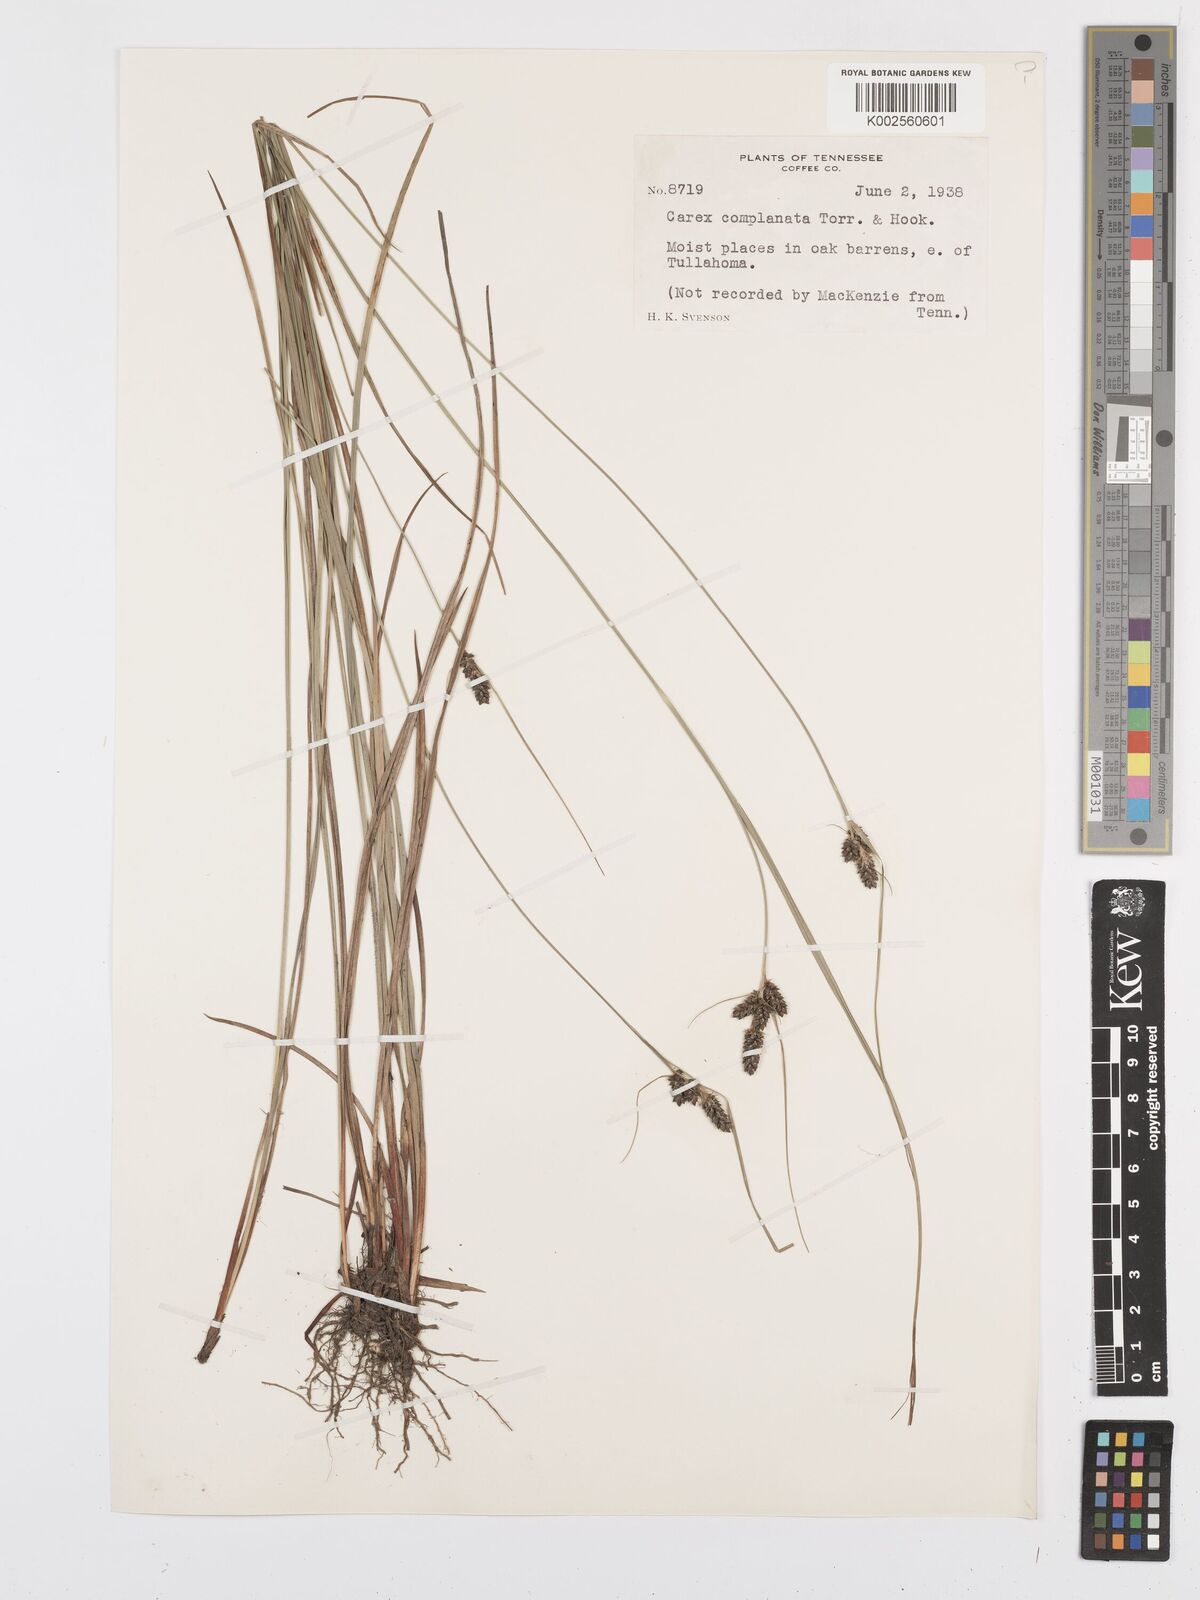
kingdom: Plantae
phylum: Tracheophyta
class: Liliopsida
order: Poales
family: Cyperaceae
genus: Carex
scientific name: Carex complanata
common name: Hirsute sedge
